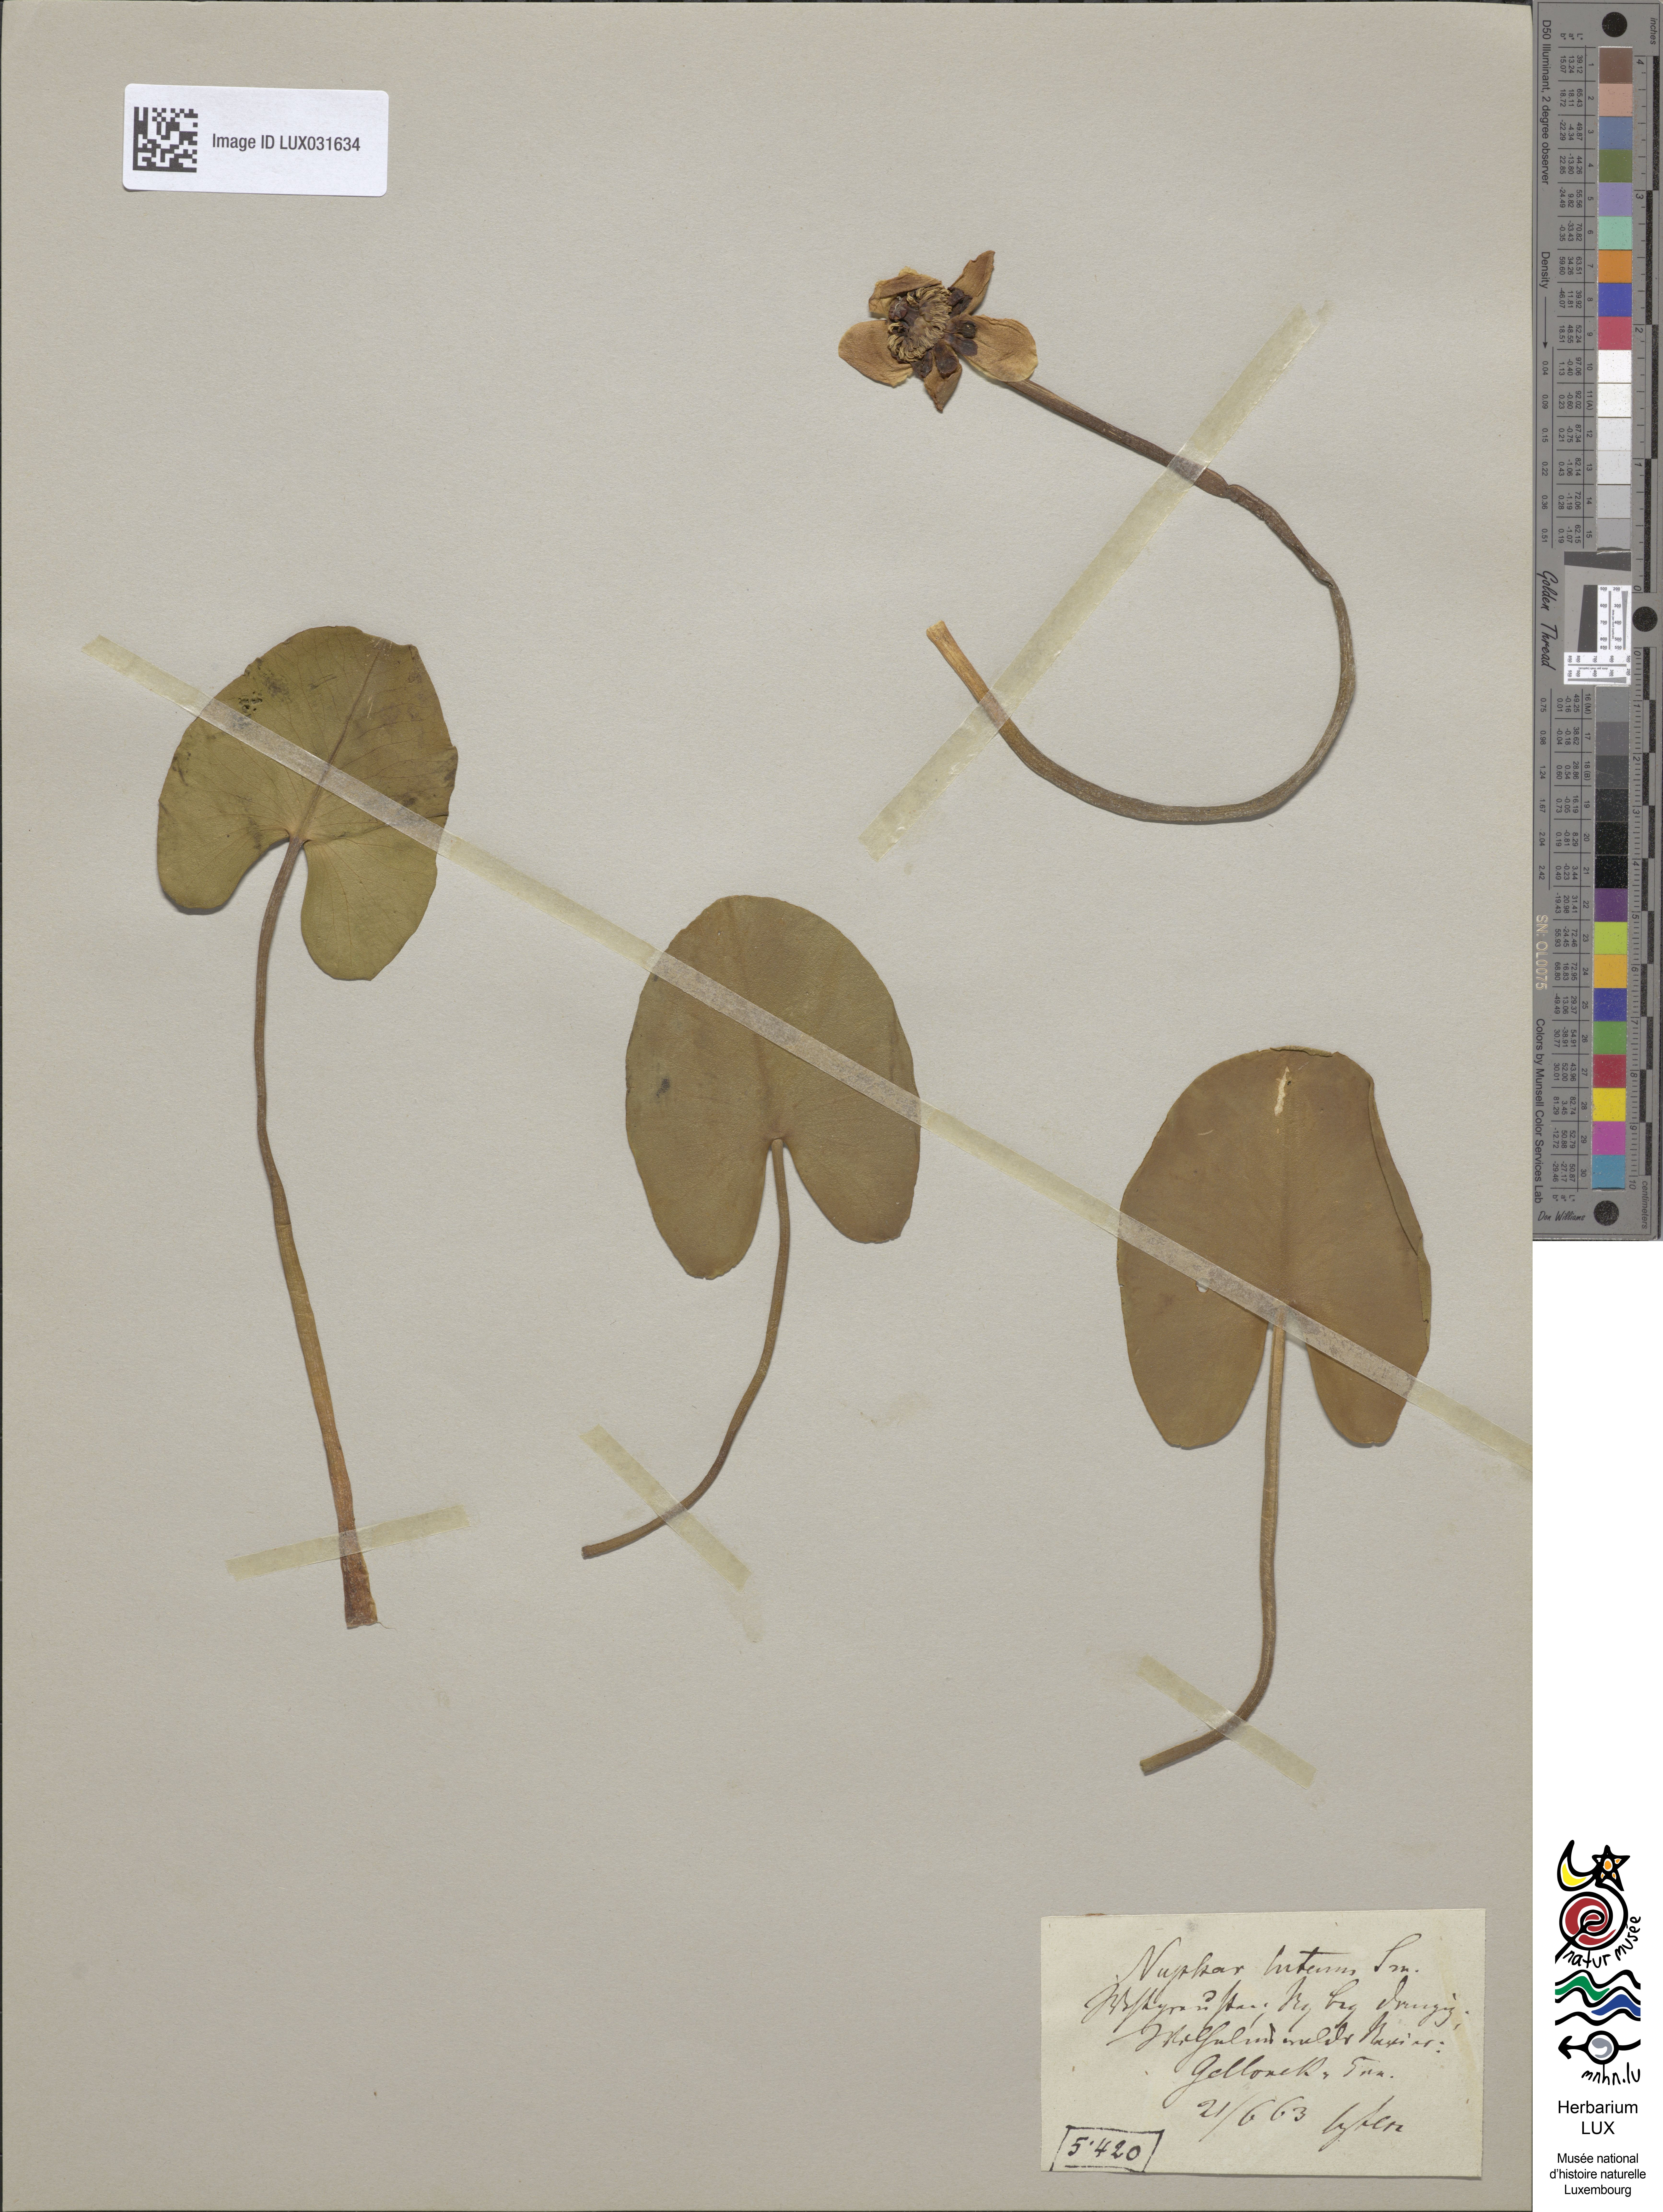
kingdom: Plantae
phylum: Tracheophyta
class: Magnoliopsida
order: Nymphaeales
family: Nymphaeaceae
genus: Nuphar
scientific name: Nuphar lutea
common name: Yellow water-lily
